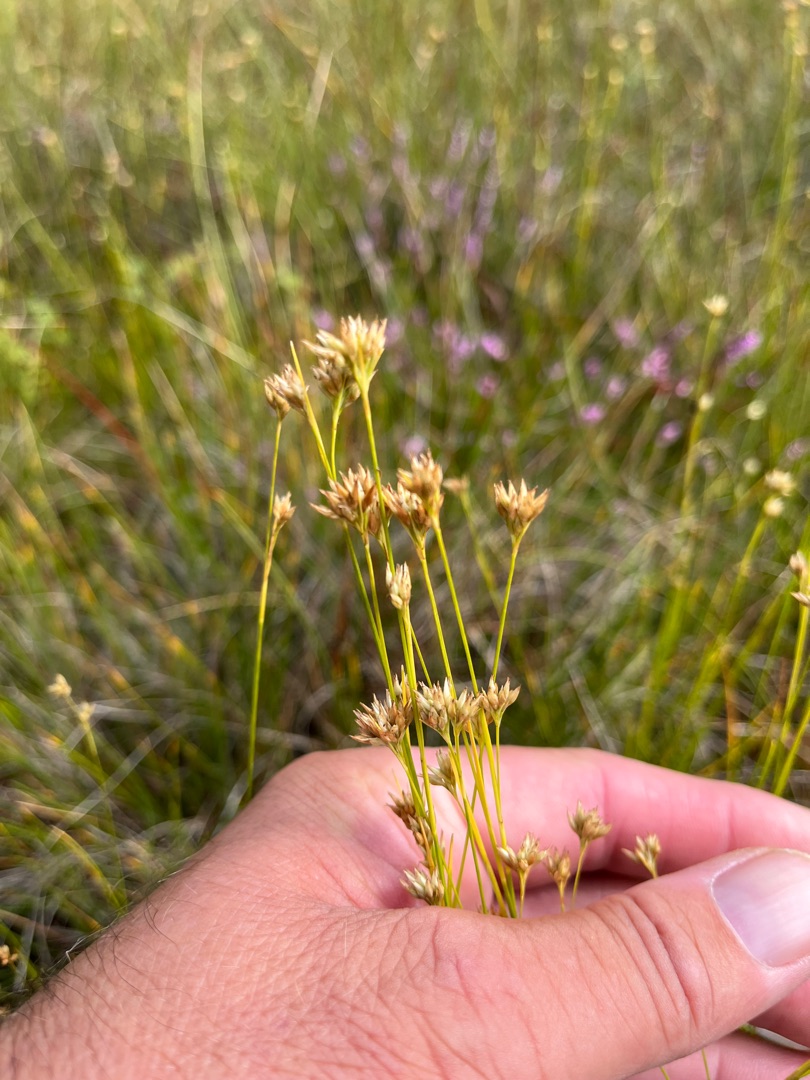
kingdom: Plantae
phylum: Tracheophyta
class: Liliopsida
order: Poales
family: Cyperaceae
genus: Rhynchospora
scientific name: Rhynchospora alba
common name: Hvid næbfrø
